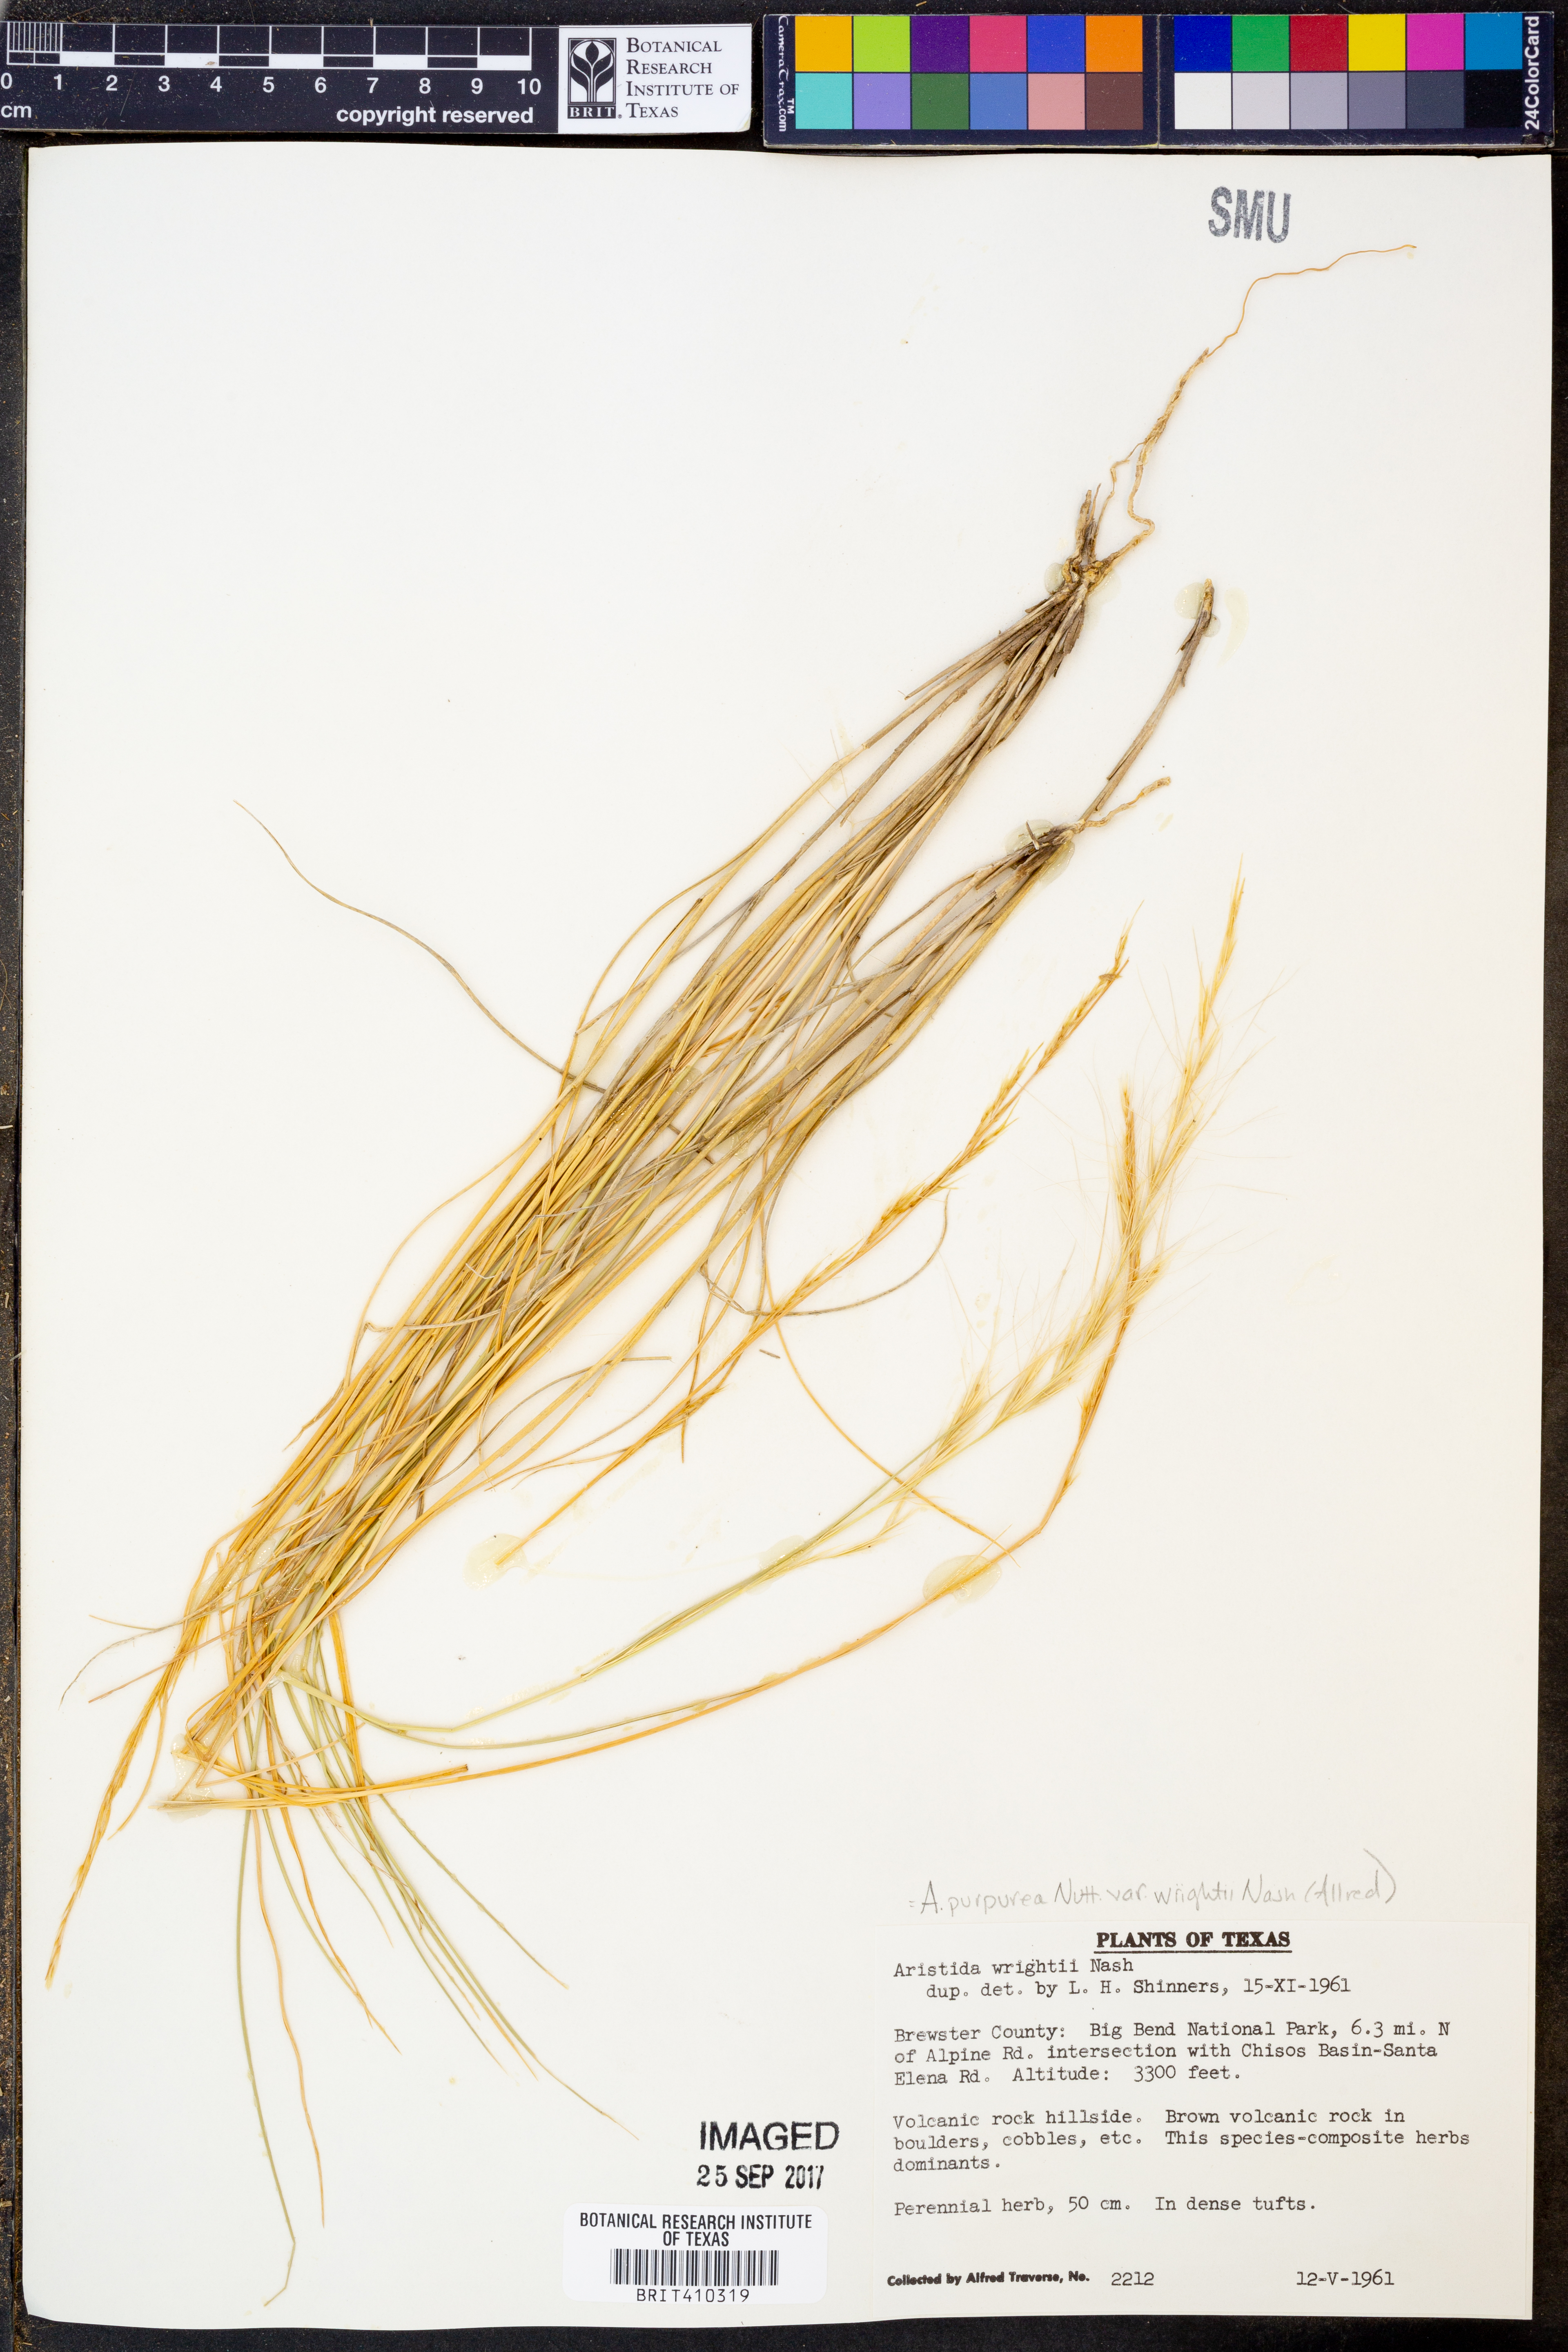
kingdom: Plantae
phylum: Tracheophyta
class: Liliopsida
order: Poales
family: Poaceae
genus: Aristida
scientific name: Aristida wrightii
